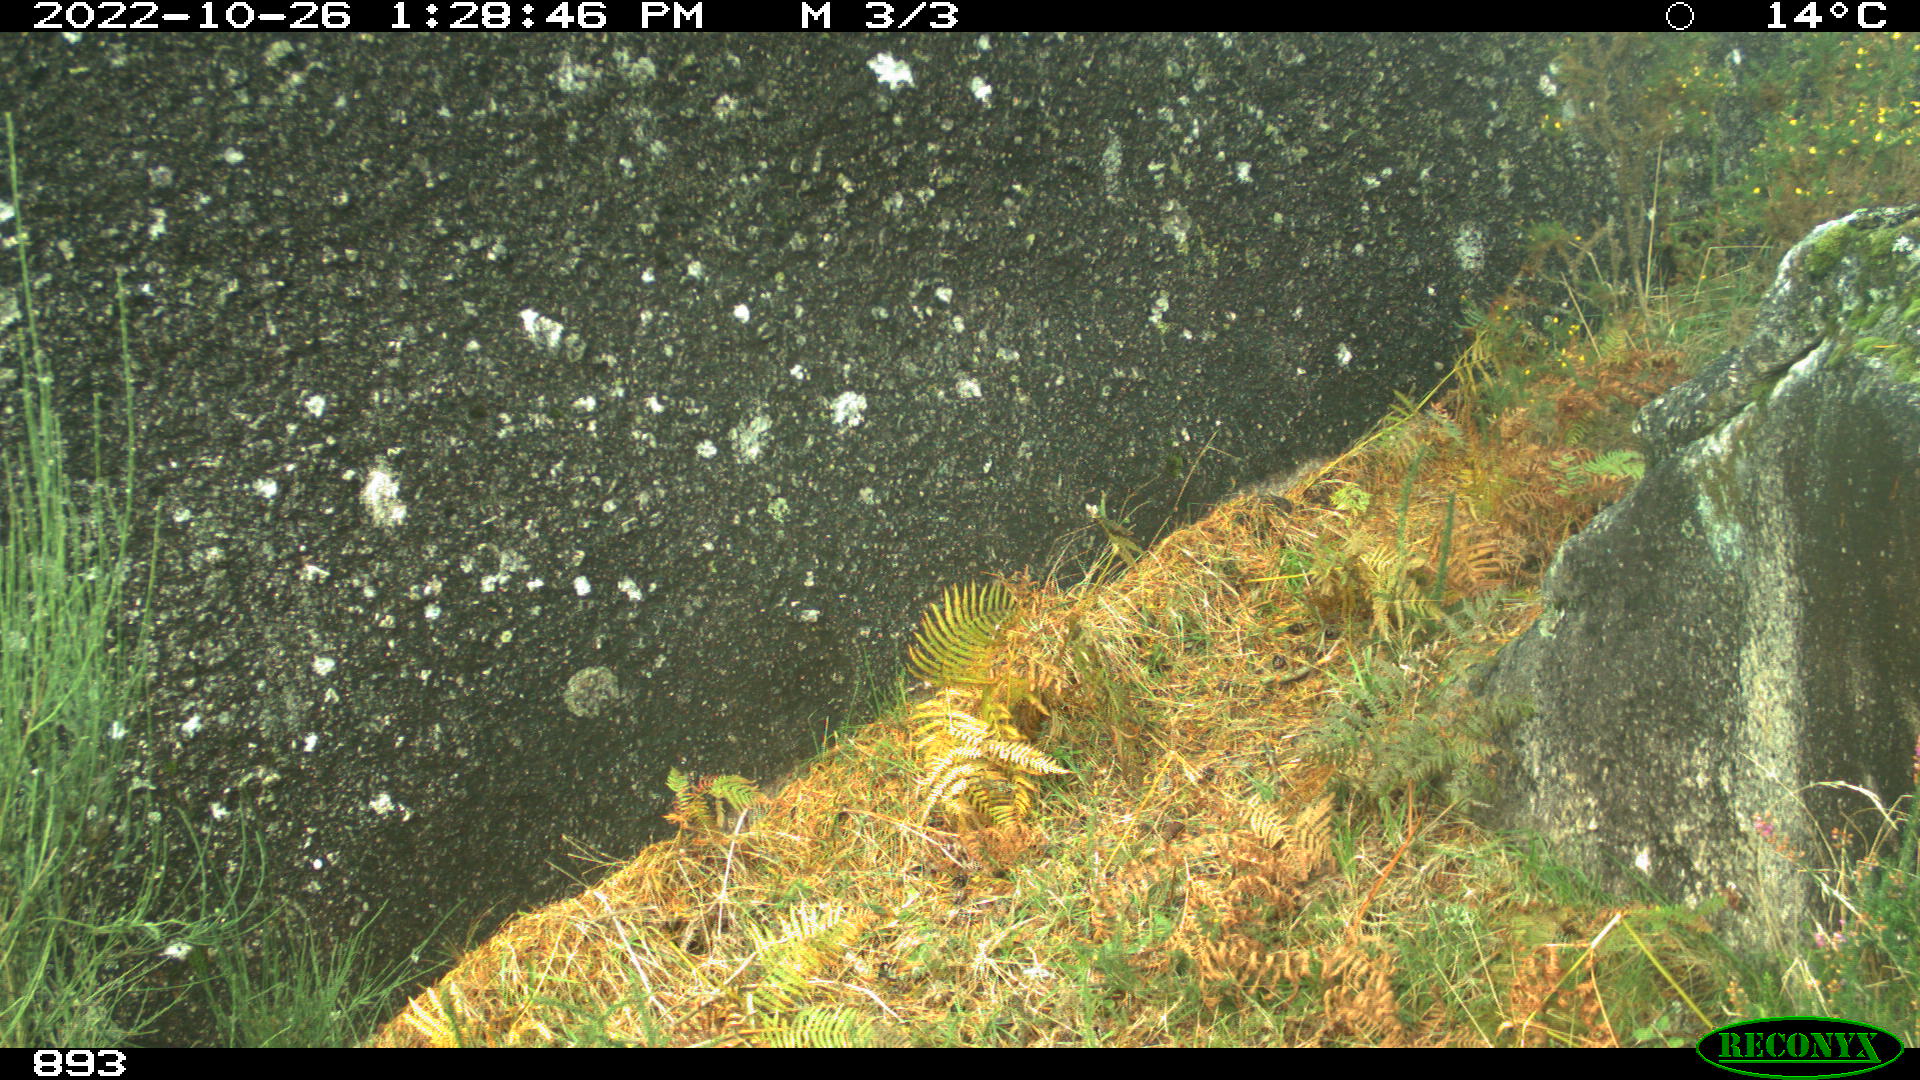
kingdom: Animalia
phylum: Chordata
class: Mammalia
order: Carnivora
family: Canidae
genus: Canis
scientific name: Canis lupus
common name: Gray wolf
